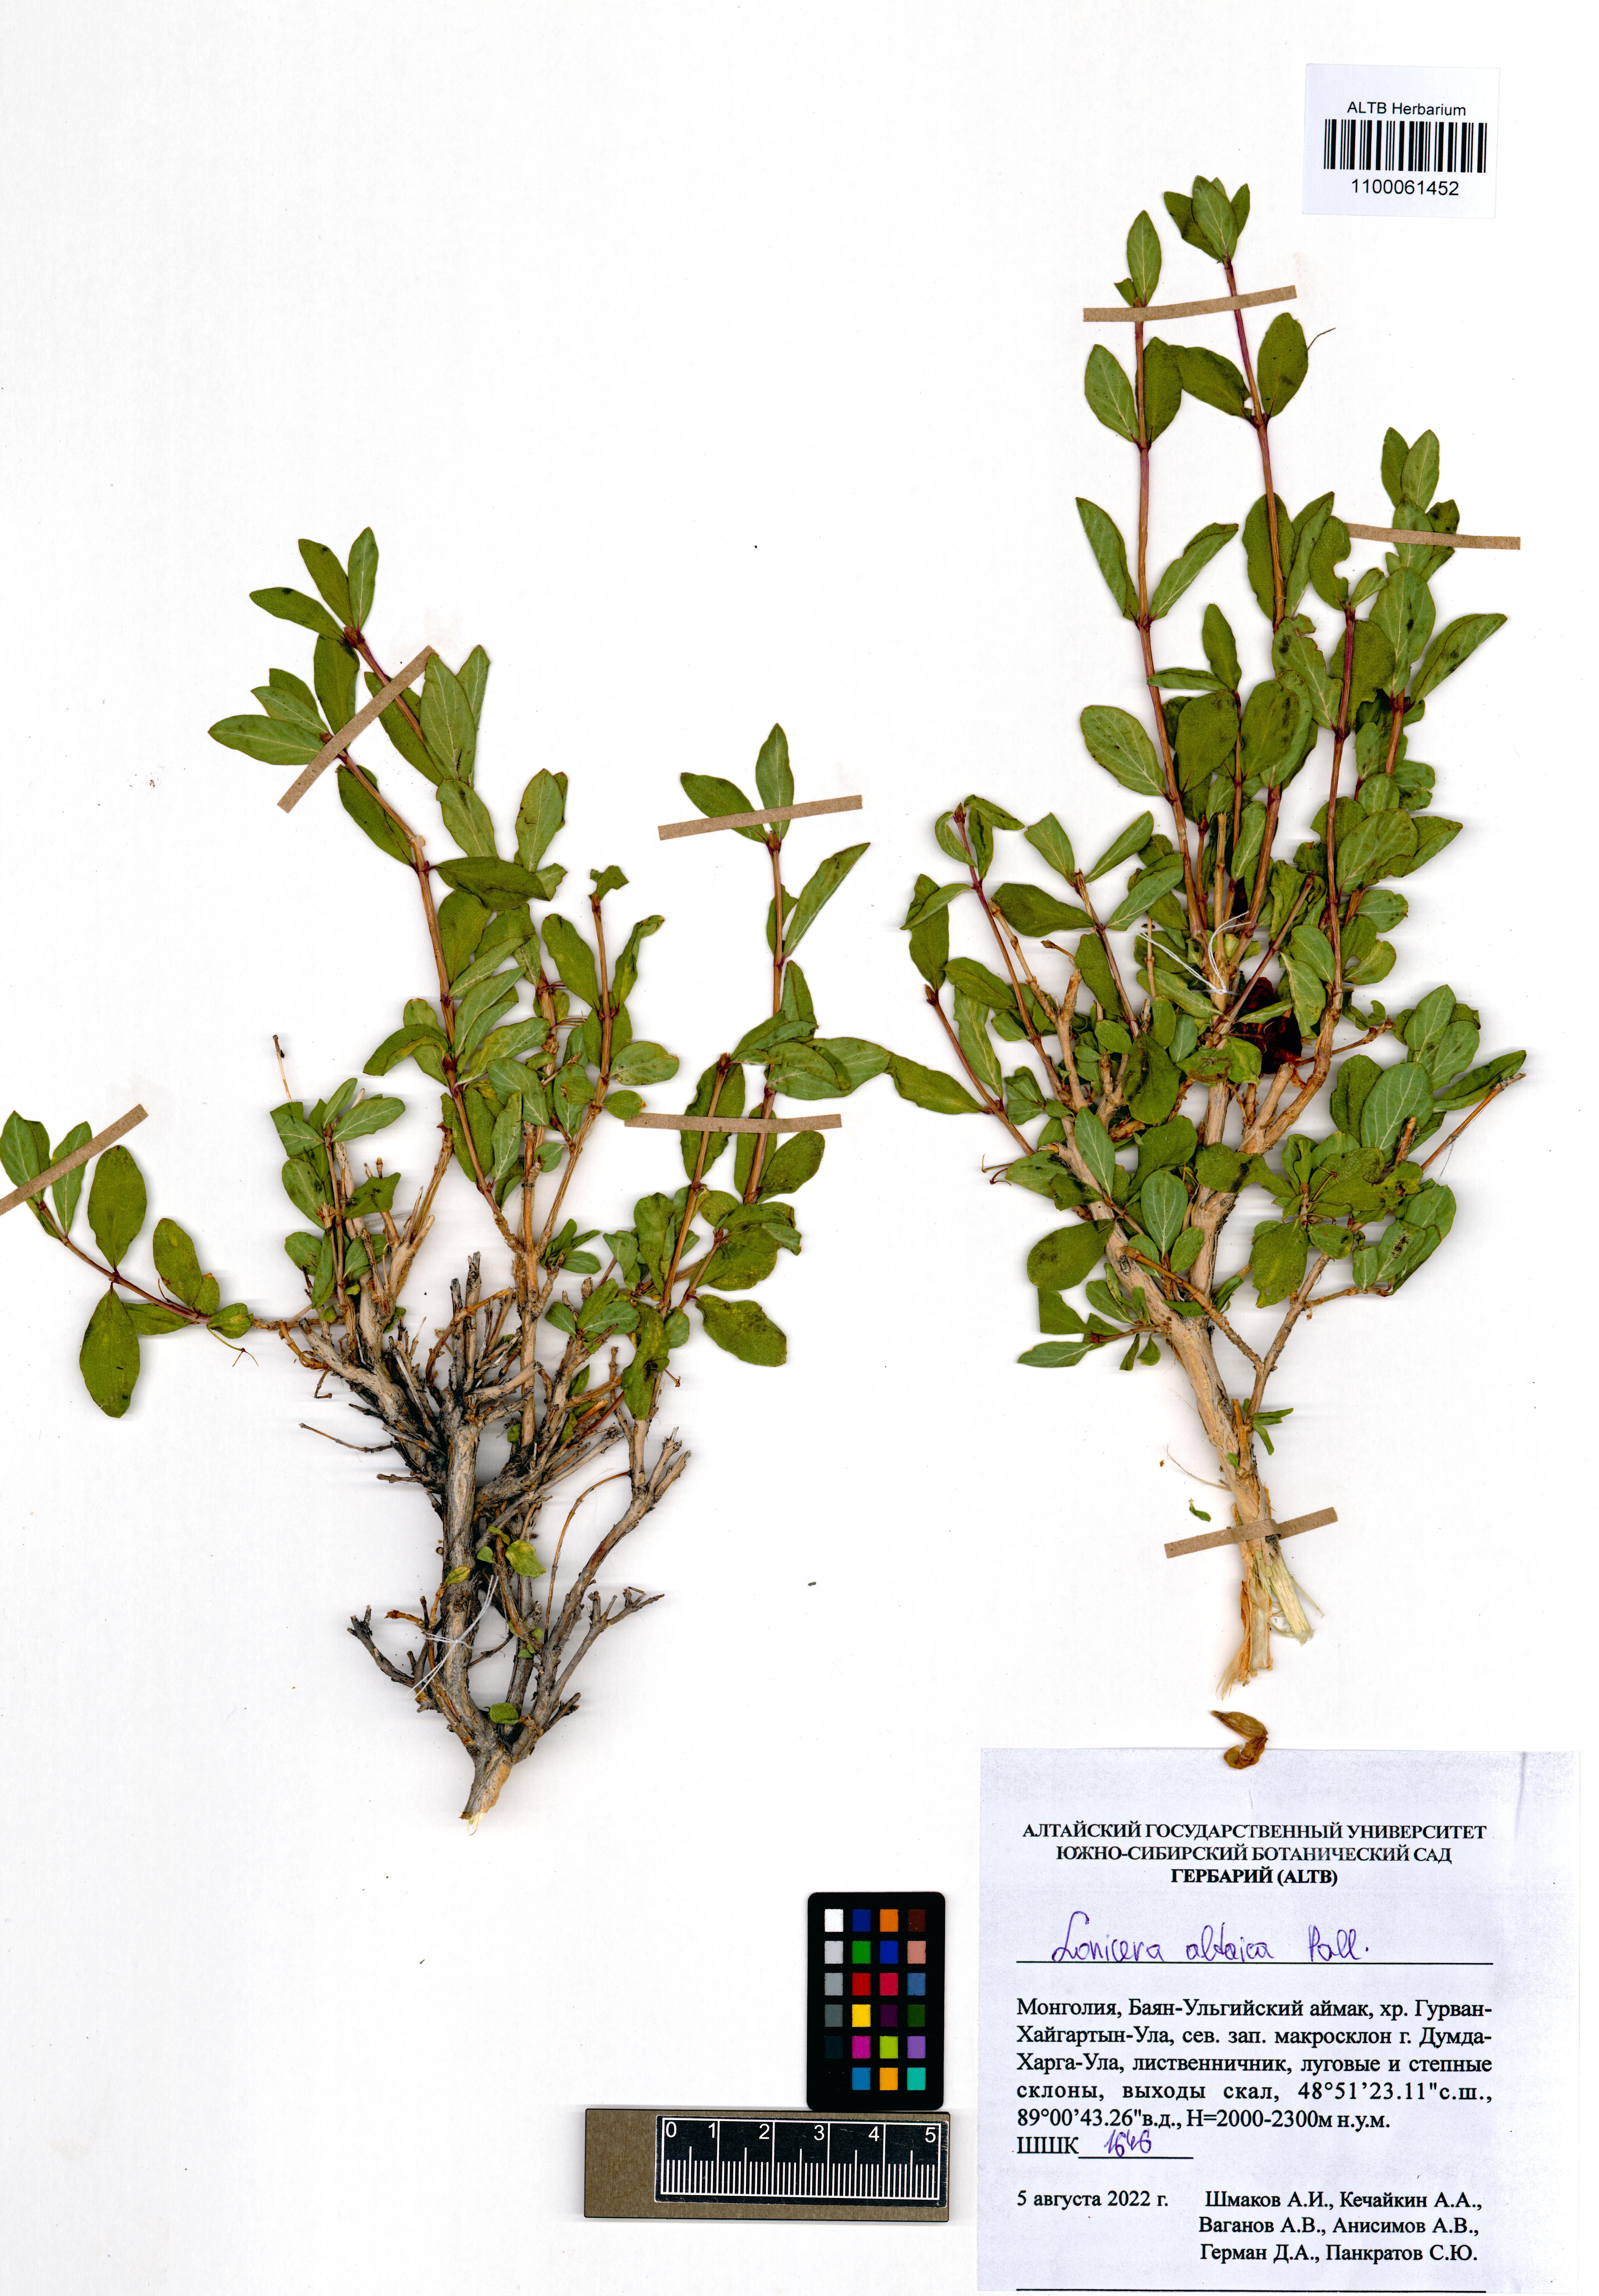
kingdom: Plantae
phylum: Tracheophyta
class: Magnoliopsida
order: Dipsacales
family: Caprifoliaceae
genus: Lonicera
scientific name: Lonicera caerulea
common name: Blue honeysuckle
